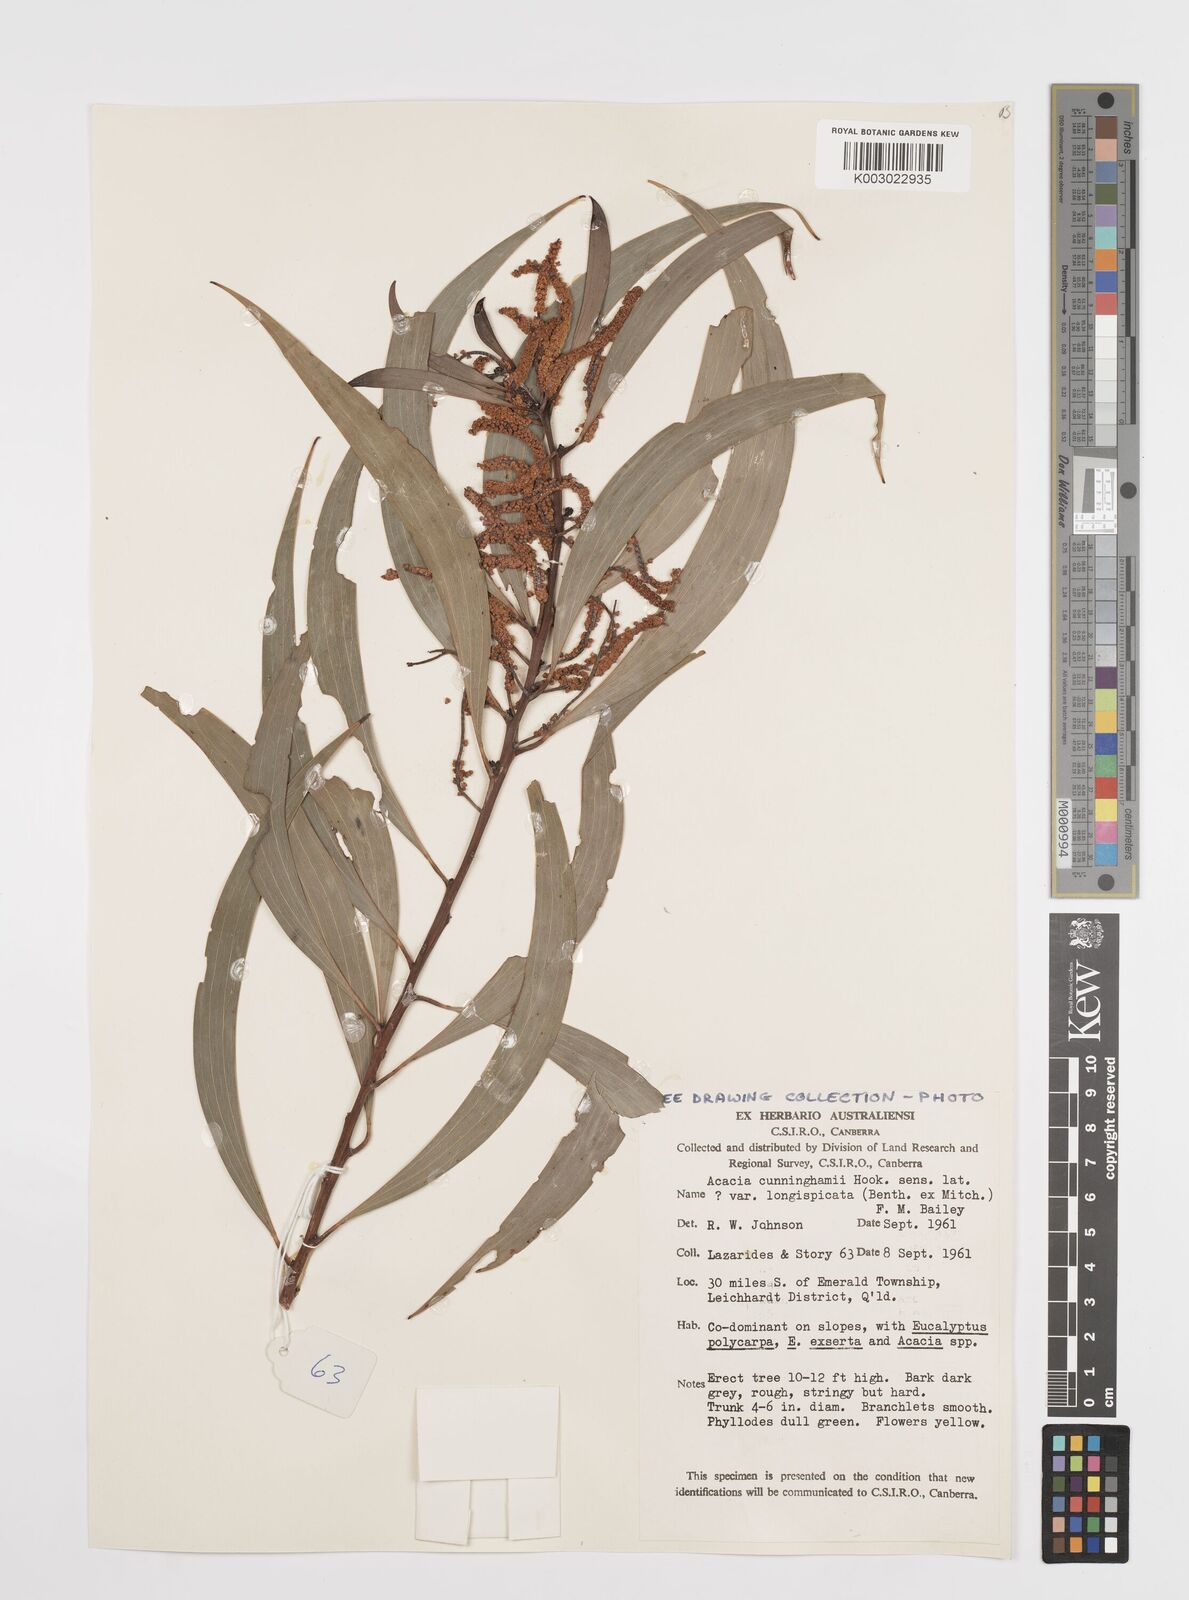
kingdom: Plantae
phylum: Tracheophyta
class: Magnoliopsida
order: Fabales
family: Fabaceae
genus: Acacia
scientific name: Acacia longispicata
